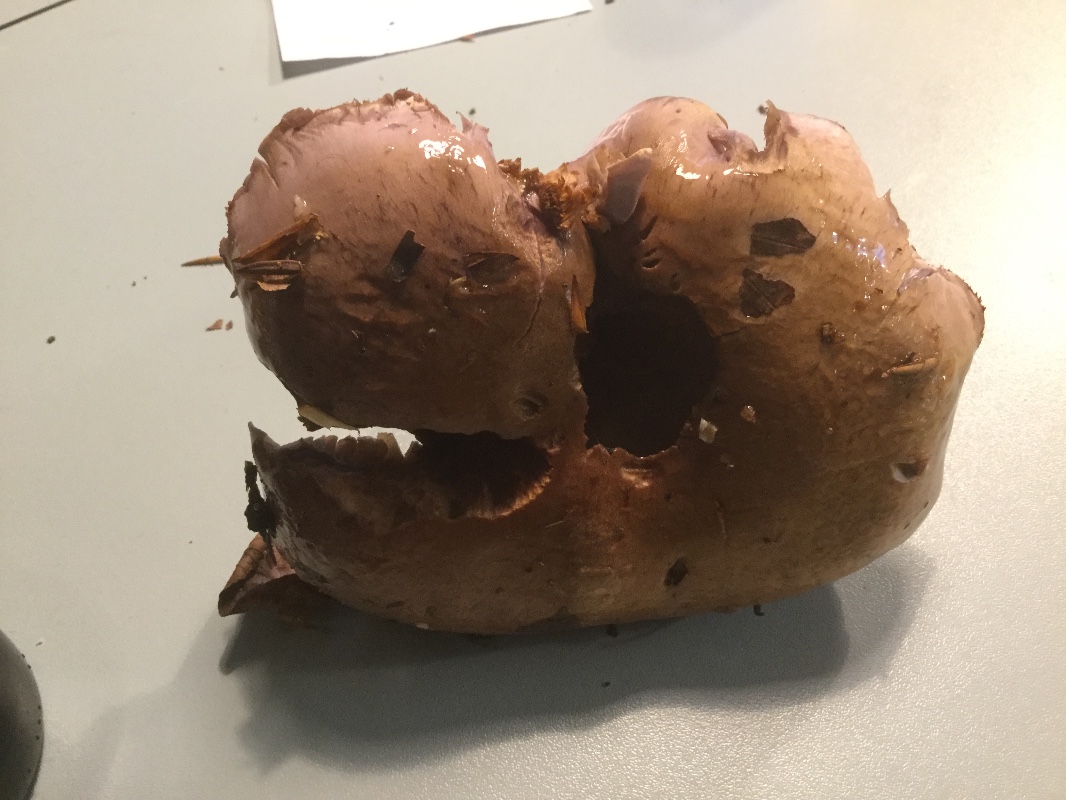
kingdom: Fungi
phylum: Basidiomycota
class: Agaricomycetes
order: Agaricales
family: Cortinariaceae
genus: Cortinarius
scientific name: Cortinarius largus
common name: violetrandet slørhat
